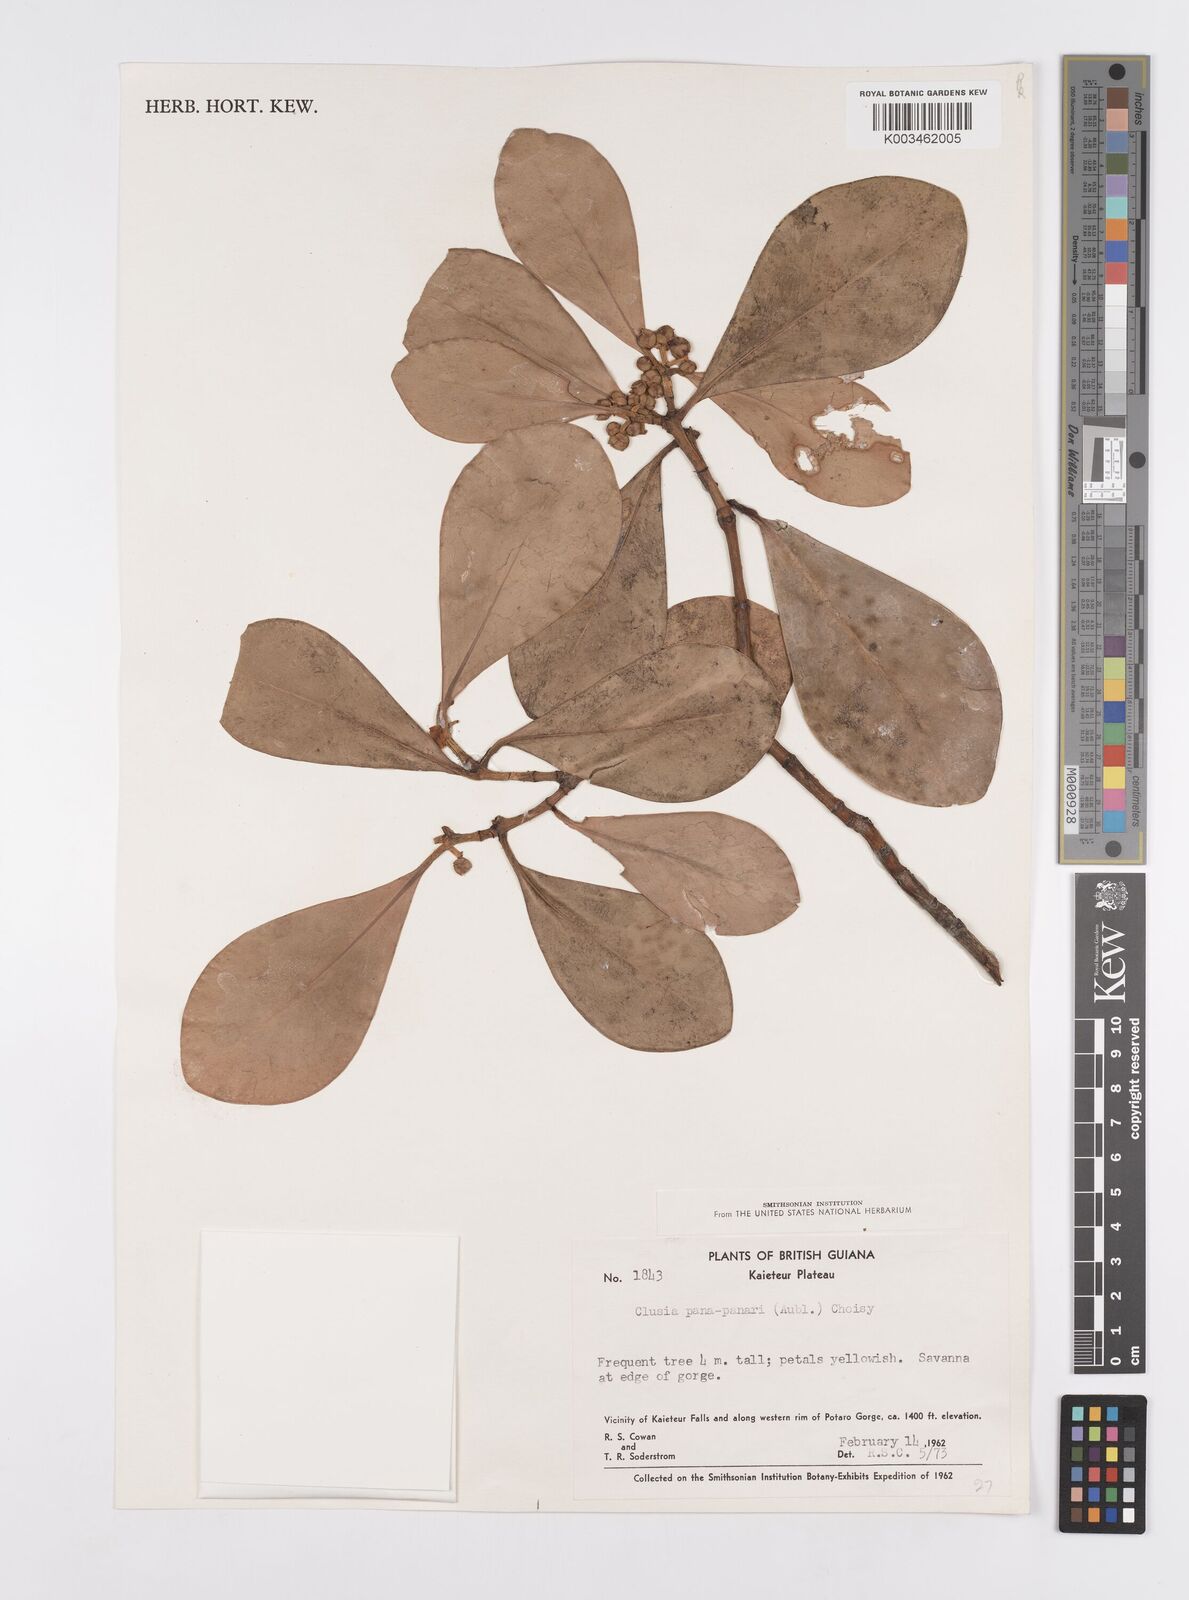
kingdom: Plantae
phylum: Tracheophyta
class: Magnoliopsida
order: Malpighiales
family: Clusiaceae
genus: Clusia
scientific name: Clusia panapanari
